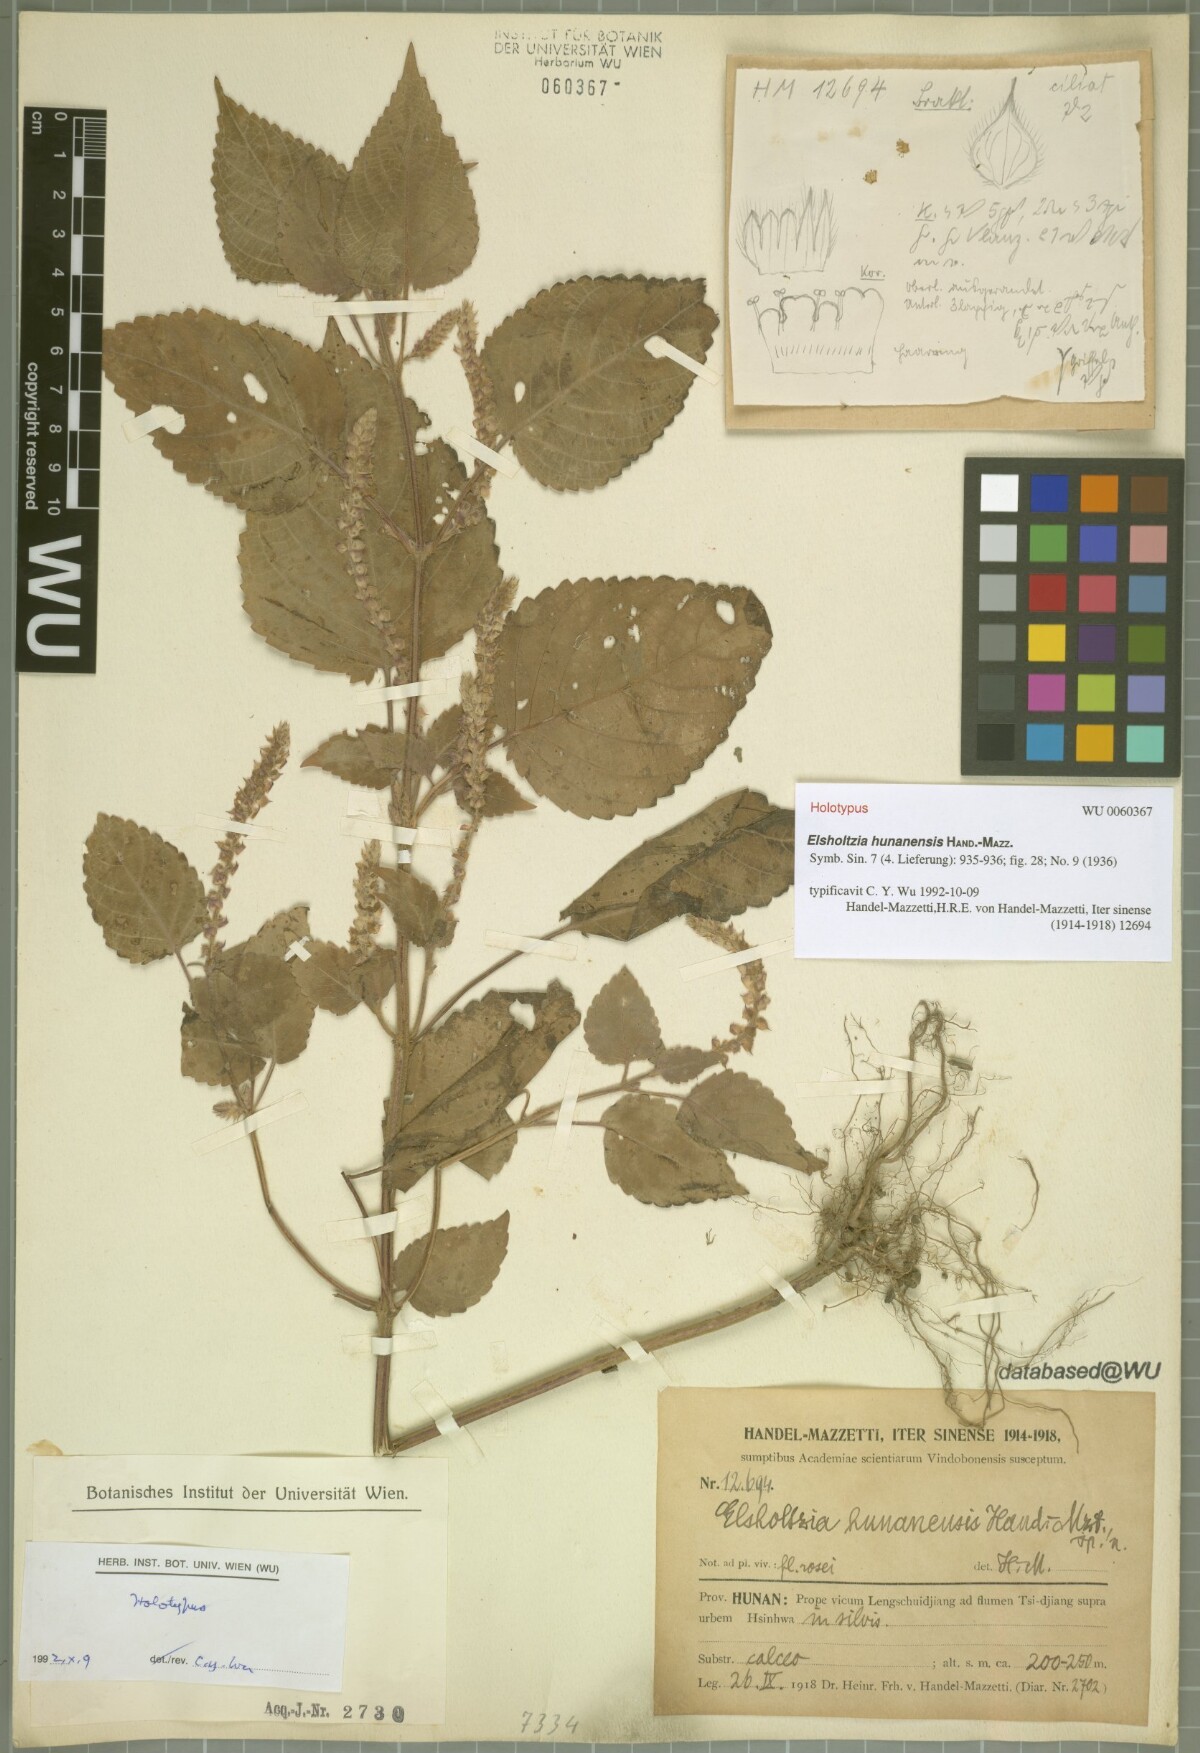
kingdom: Plantae
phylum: Tracheophyta
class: Magnoliopsida
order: Lamiales
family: Lamiaceae
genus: Elsholtzia
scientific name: Elsholtzia hunanensis
